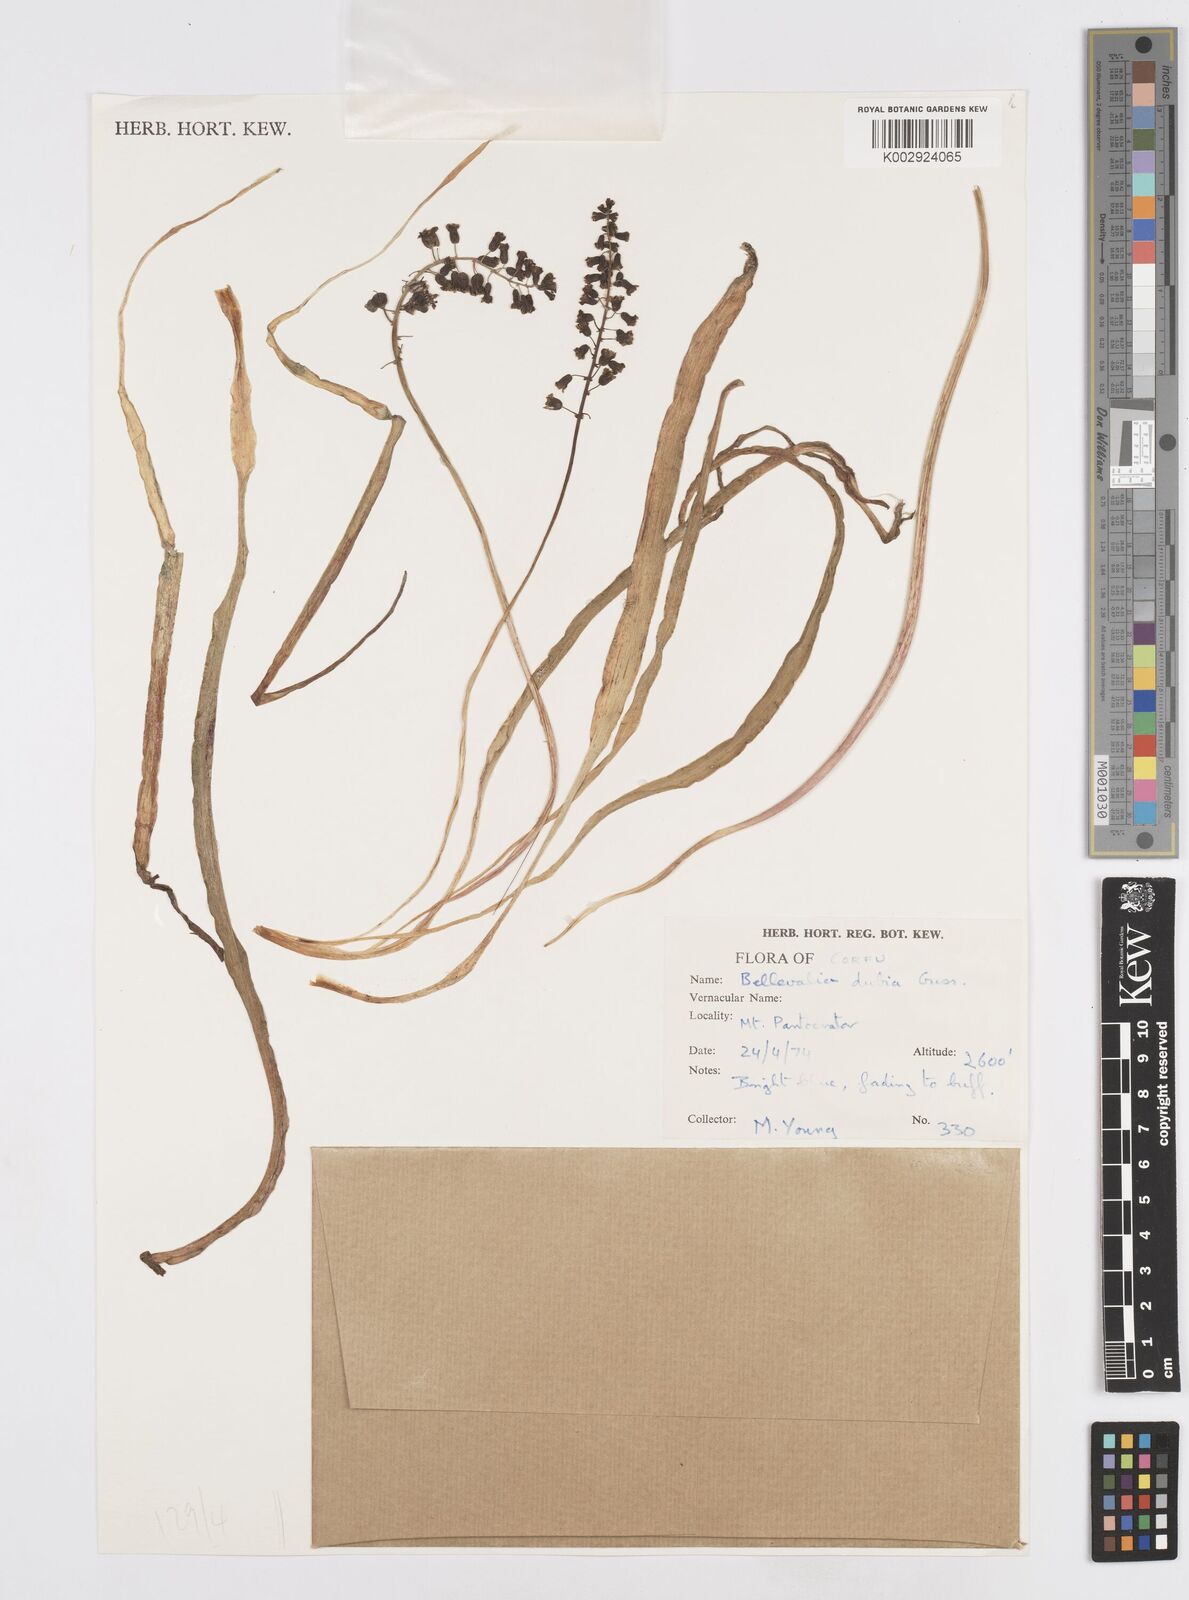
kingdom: Plantae
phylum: Tracheophyta
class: Liliopsida
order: Asparagales
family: Asparagaceae
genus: Bellevalia
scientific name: Bellevalia dubia
